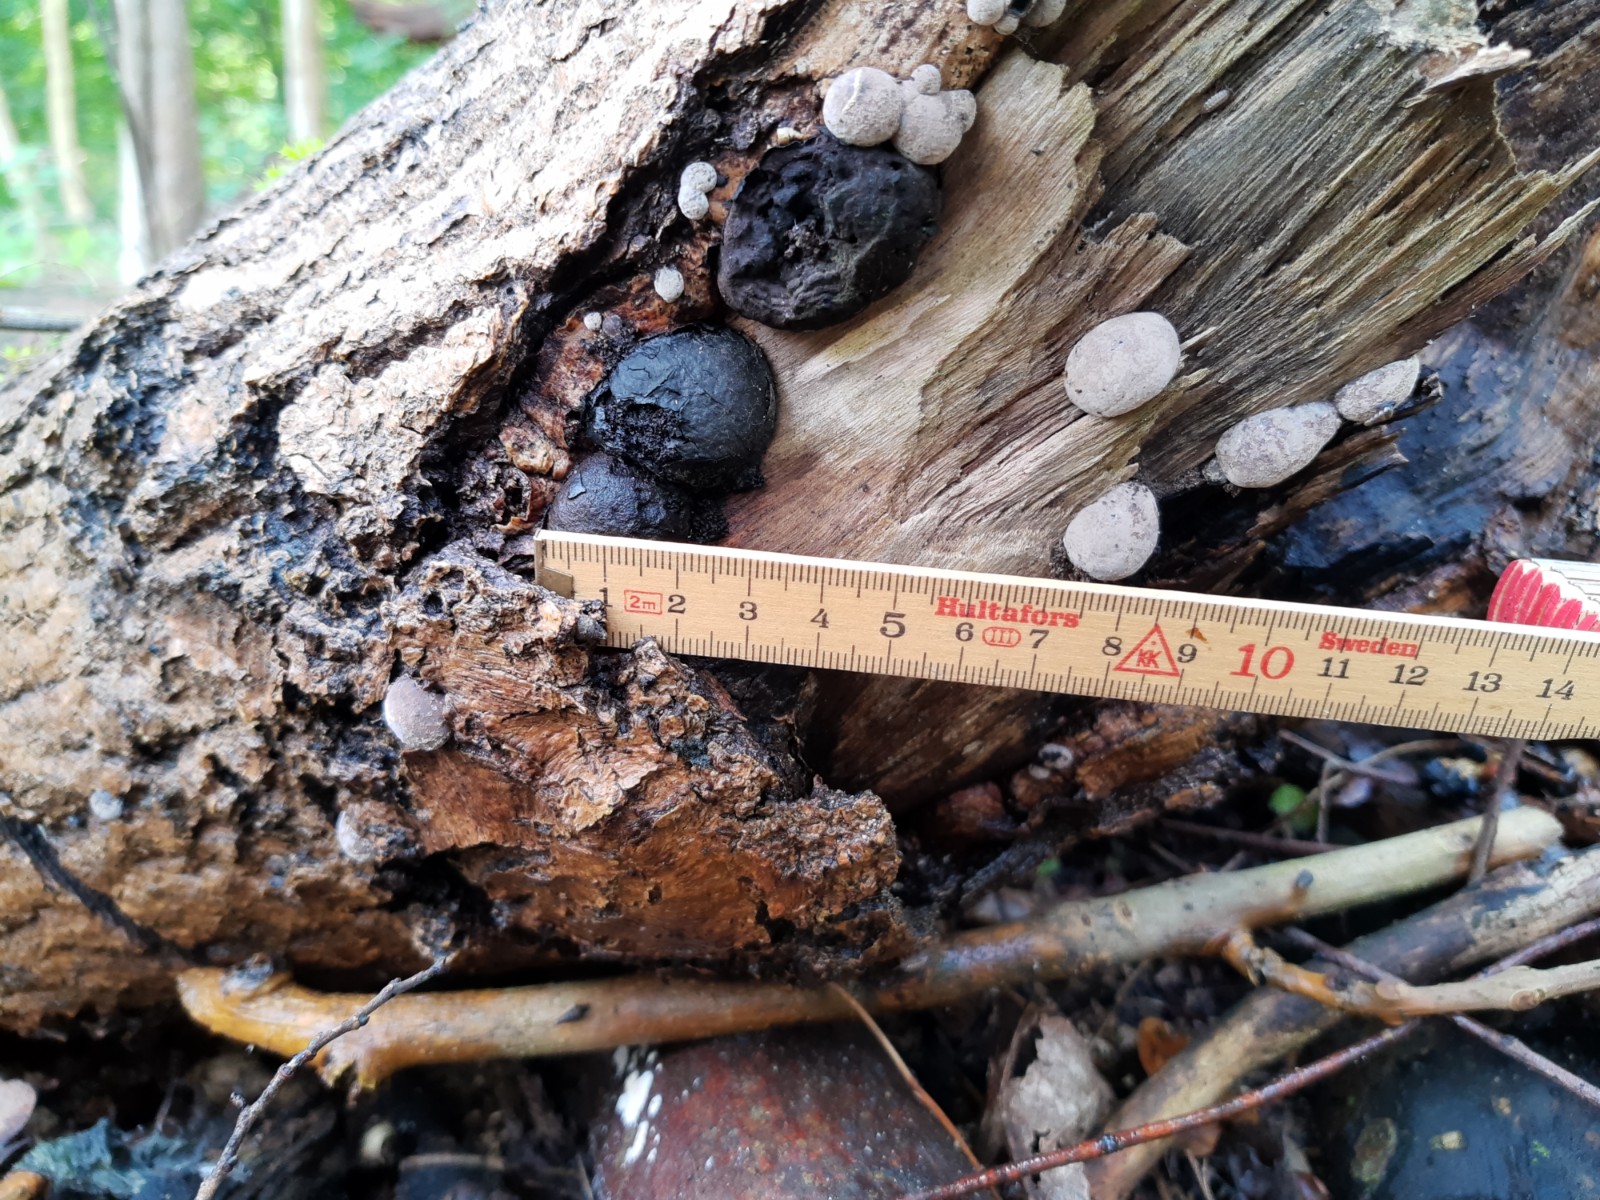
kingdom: Fungi
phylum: Ascomycota
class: Sordariomycetes
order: Xylariales
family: Hypoxylaceae
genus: Daldinia
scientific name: Daldinia concentrica
